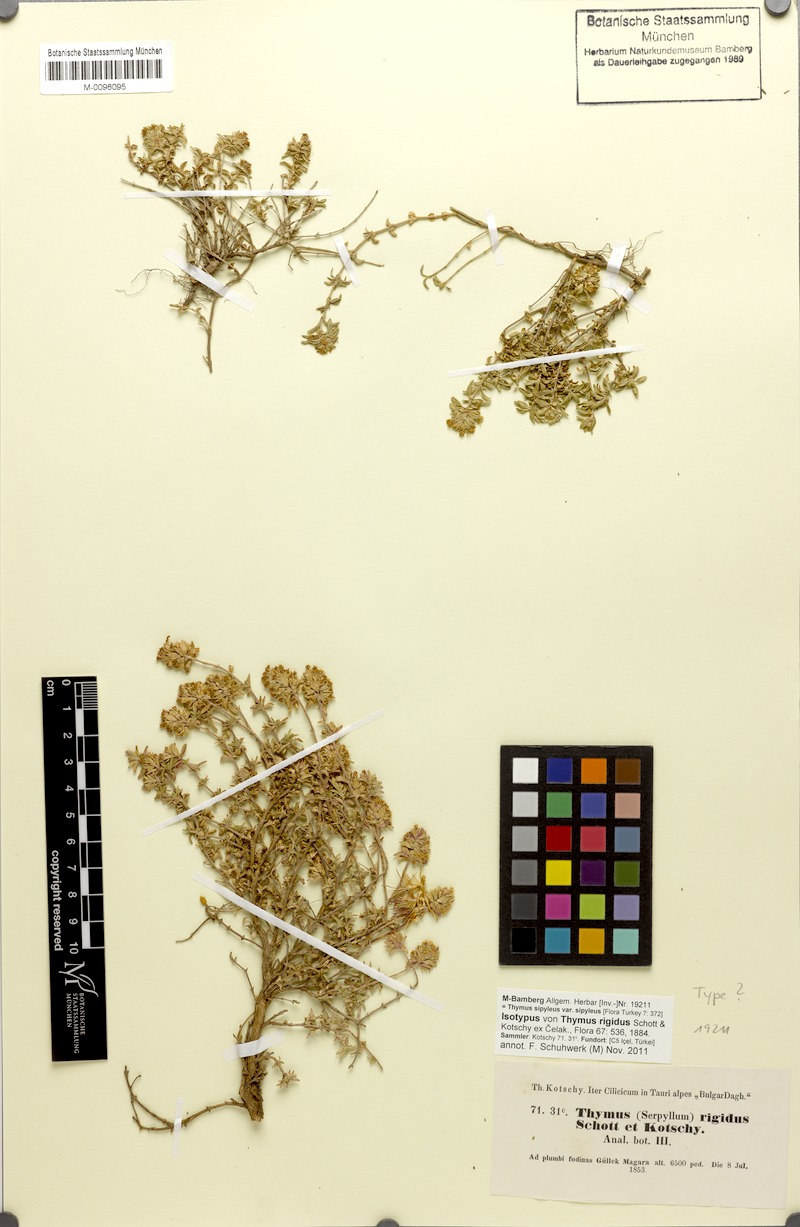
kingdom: Plantae
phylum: Tracheophyta
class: Magnoliopsida
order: Lamiales
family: Lamiaceae
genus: Thymus
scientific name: Thymus sipyleus
